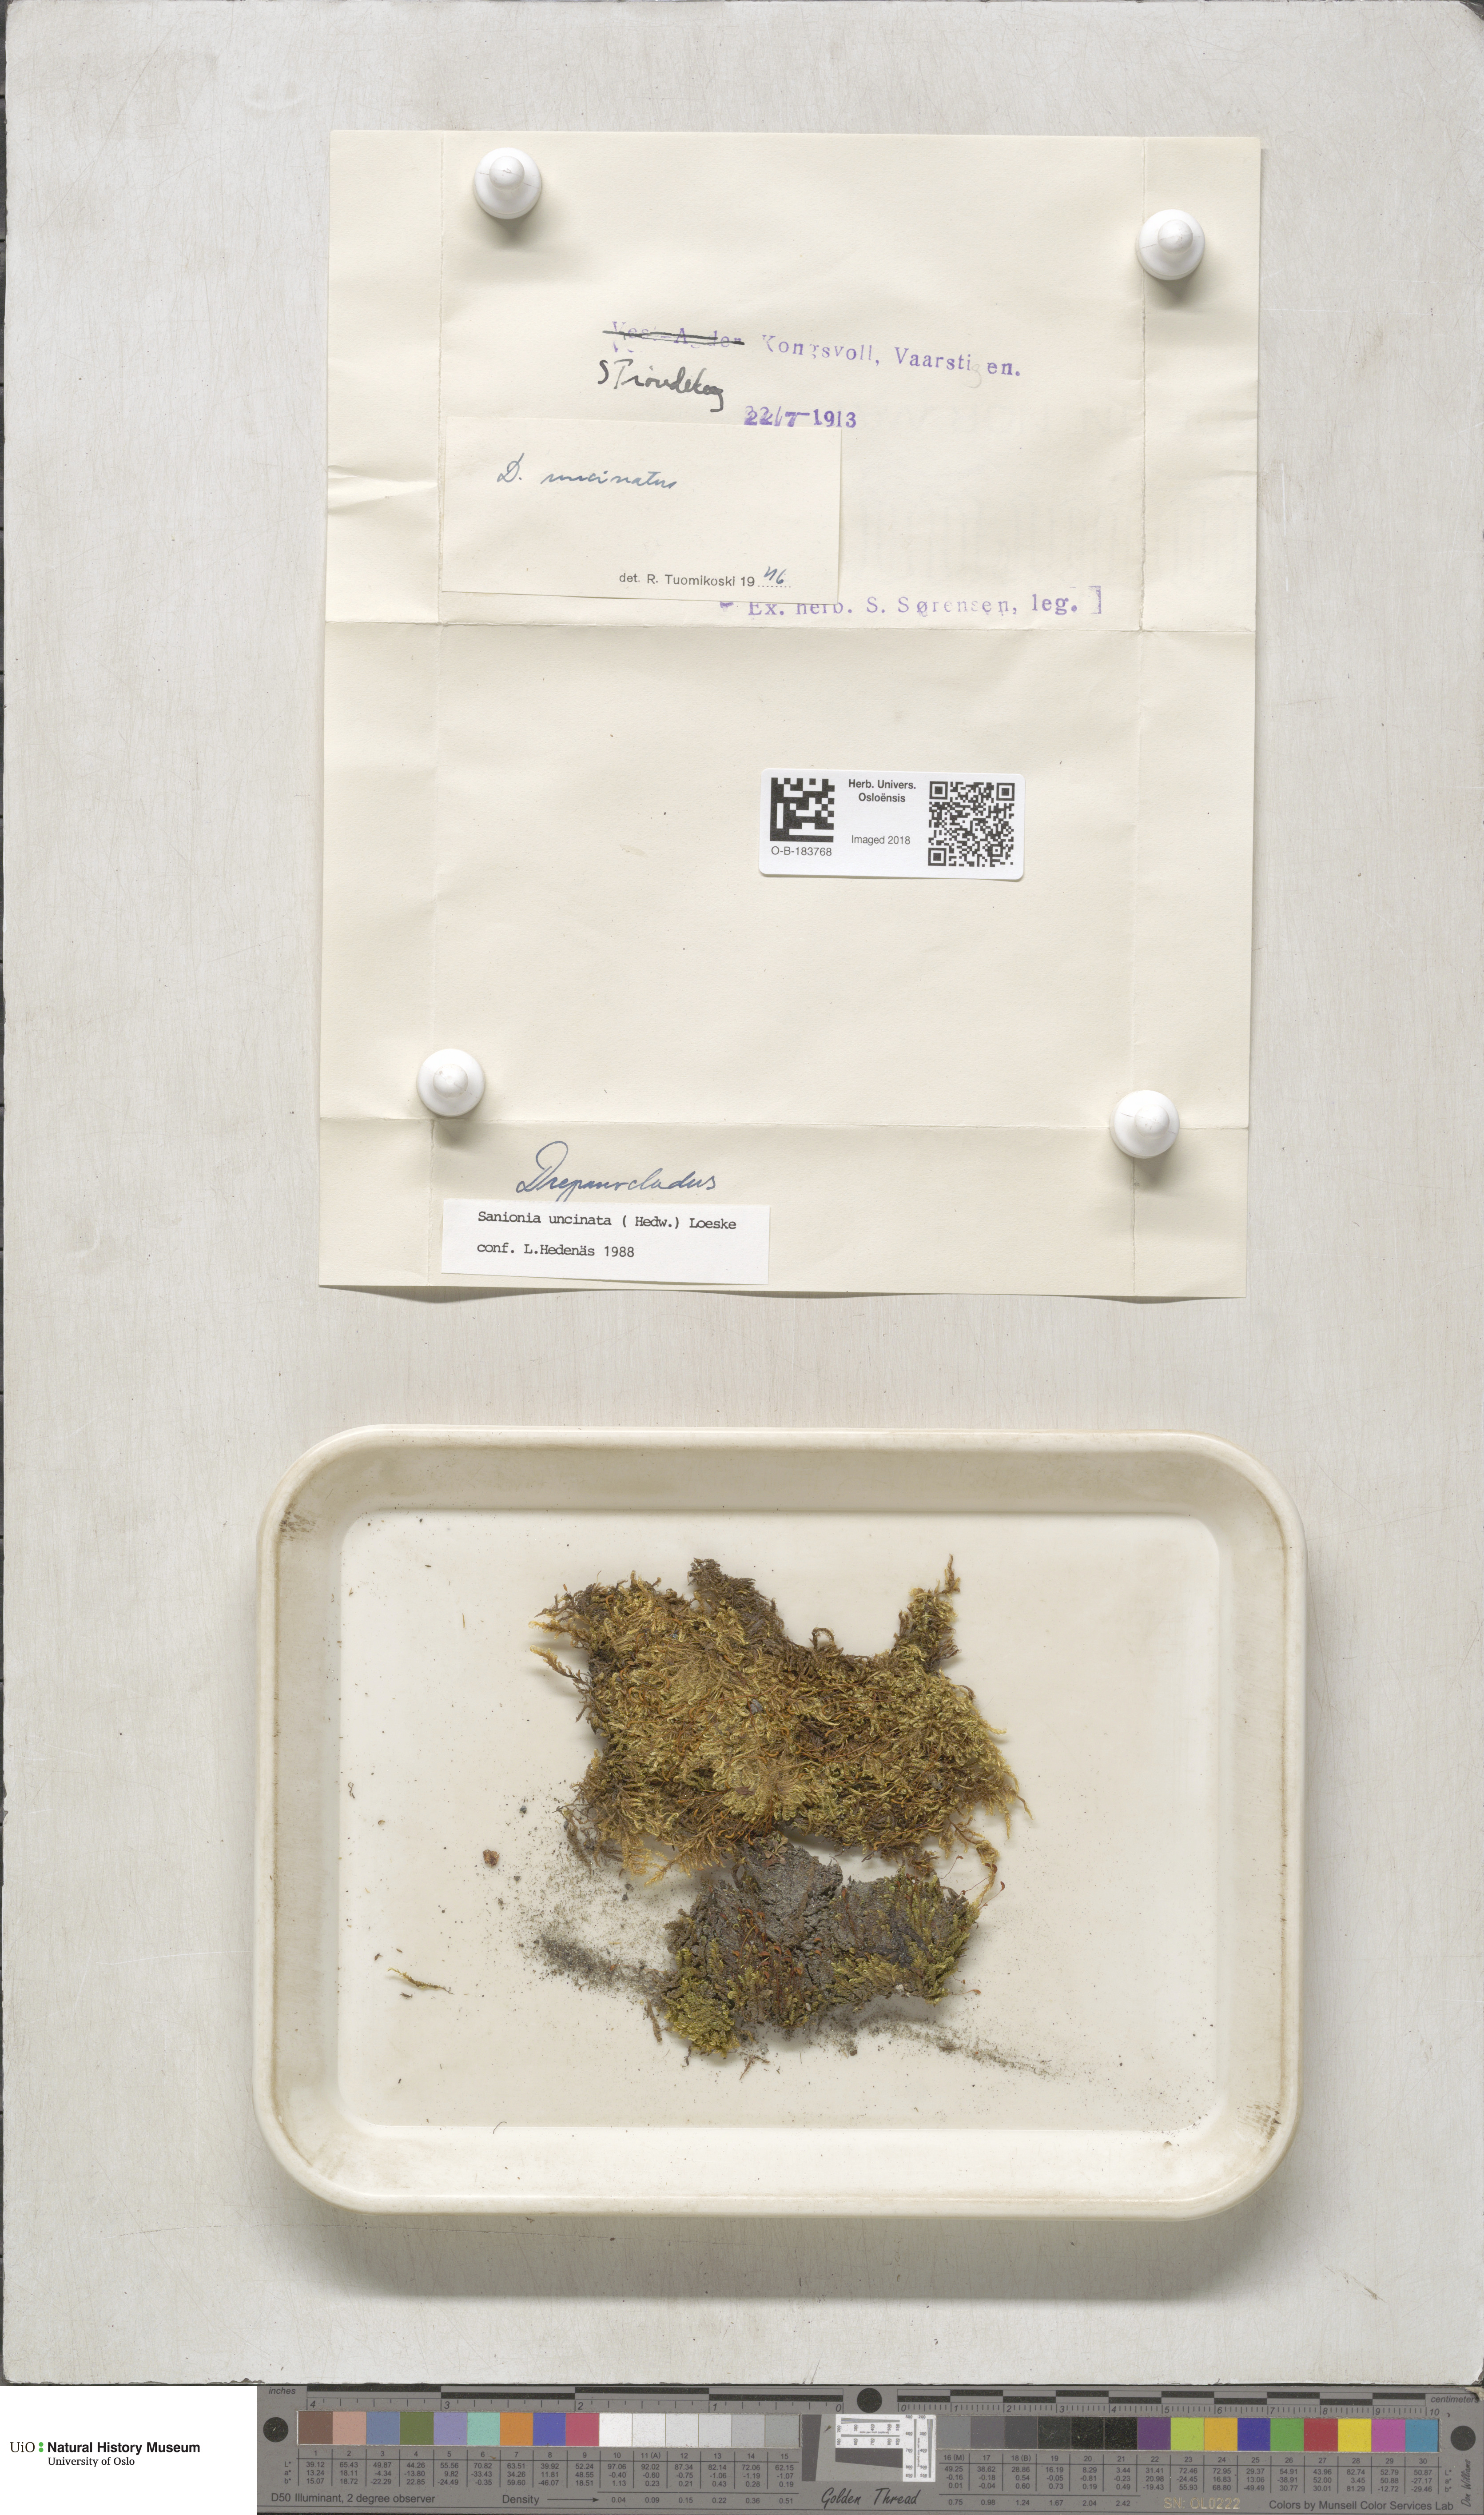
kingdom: Plantae
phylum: Bryophyta
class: Bryopsida
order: Hypnales
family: Scorpidiaceae
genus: Sanionia
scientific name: Sanionia uncinata
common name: Sickle moss
